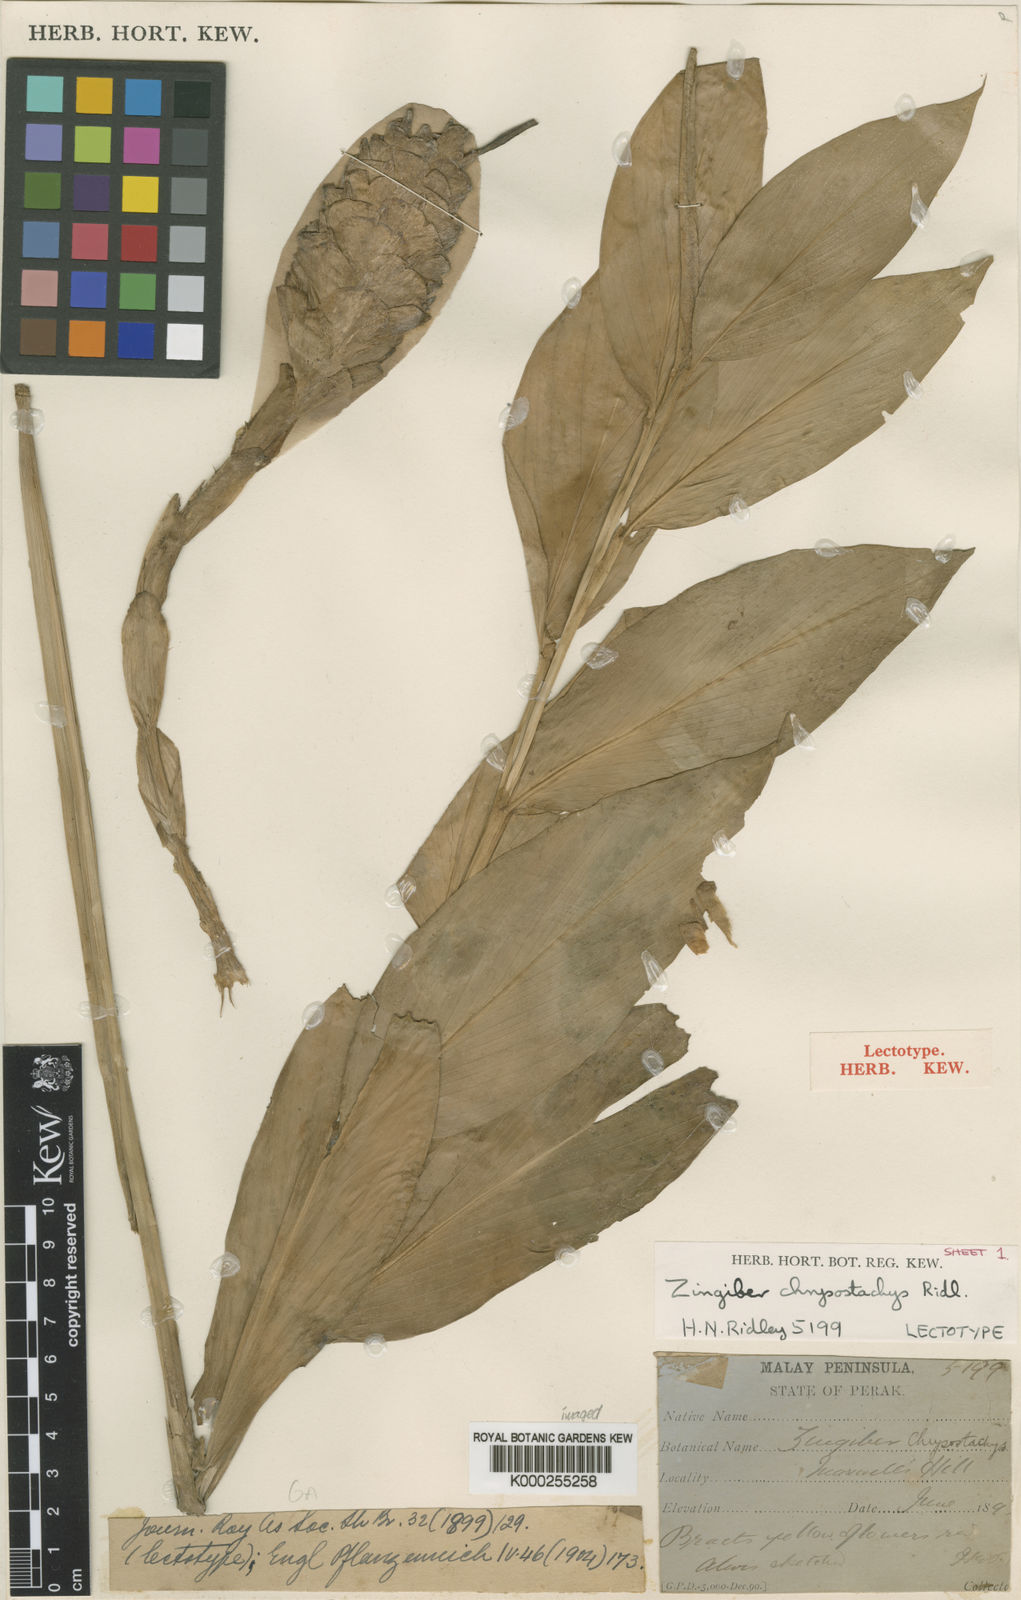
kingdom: Plantae
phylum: Tracheophyta
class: Liliopsida
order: Zingiberales
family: Zingiberaceae
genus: Zingiber
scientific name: Zingiber chrysostachys
